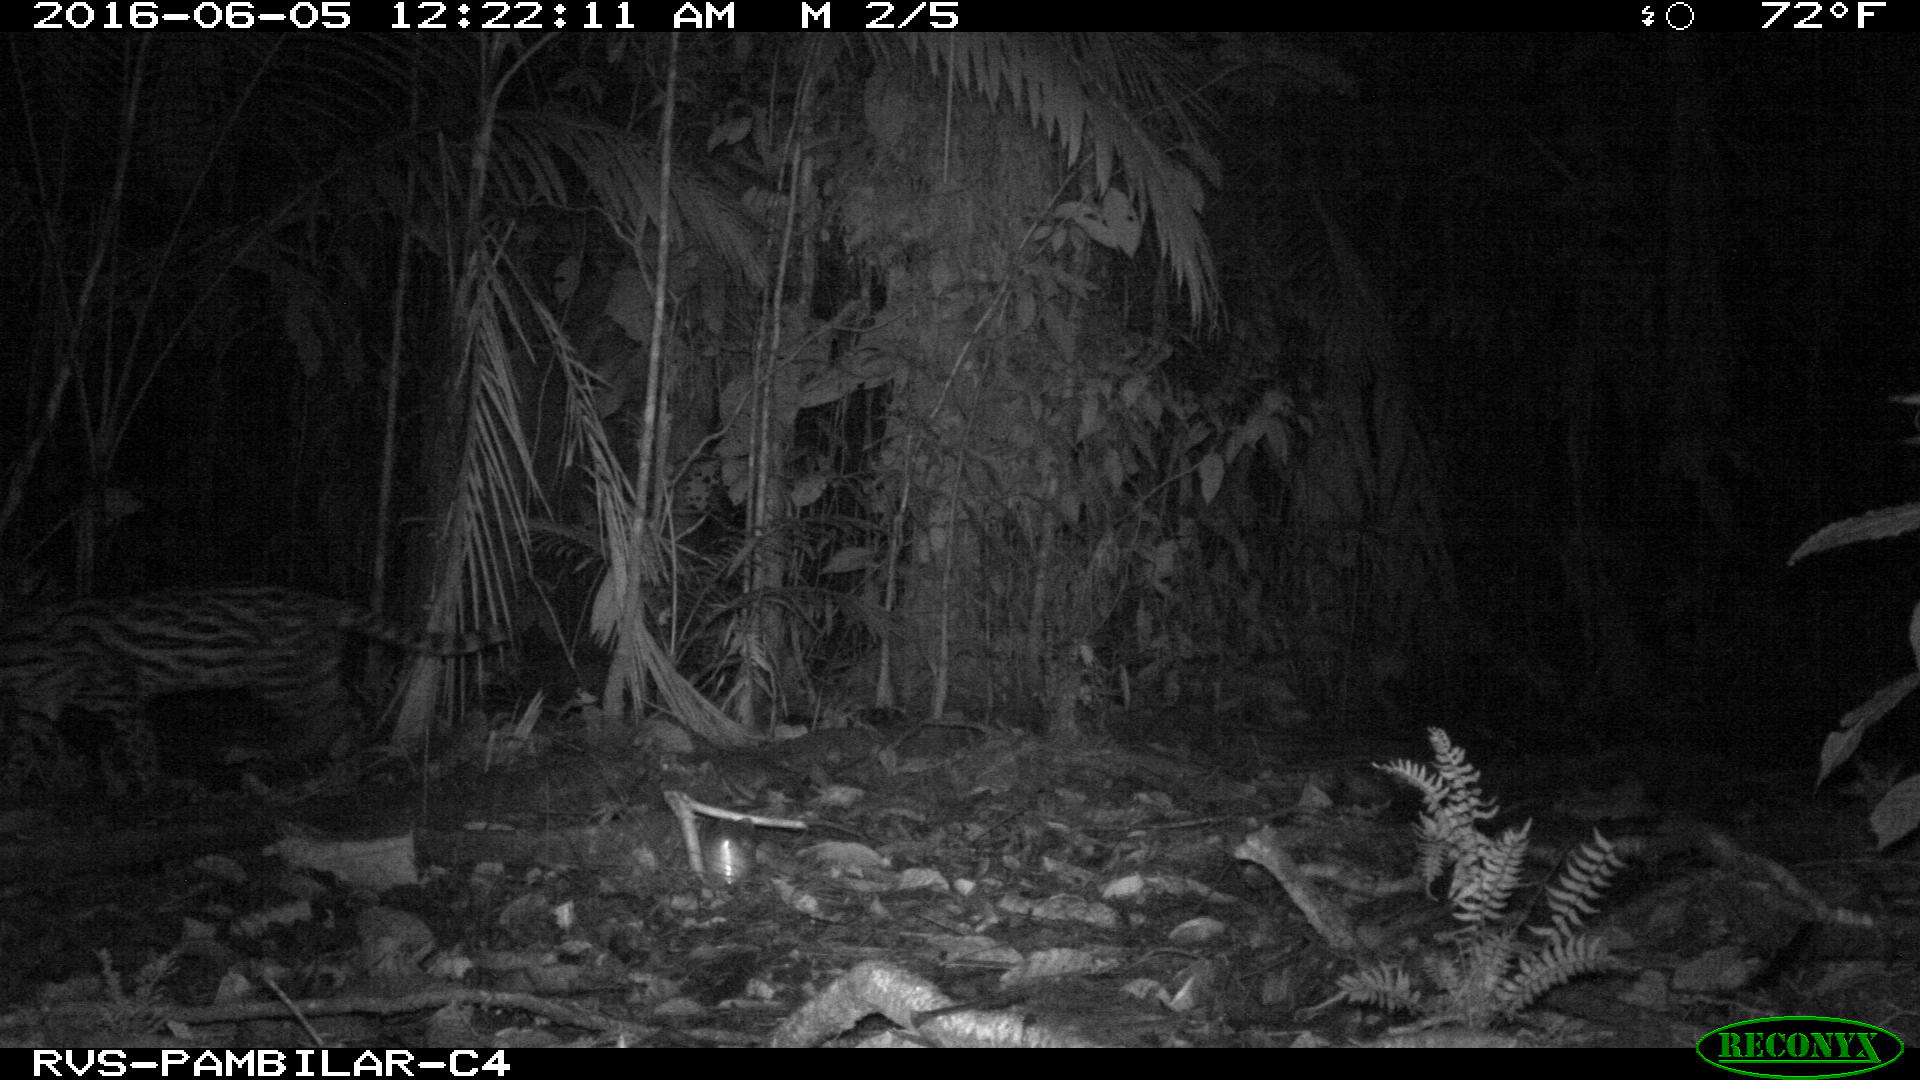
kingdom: Animalia
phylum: Chordata
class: Mammalia
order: Carnivora
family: Felidae
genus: Leopardus
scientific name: Leopardus pardalis
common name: Ocelot
